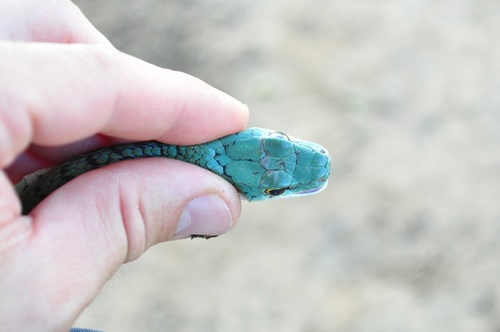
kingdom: Animalia
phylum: Chordata
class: Squamata
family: Colubridae
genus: Philothamnus
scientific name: Philothamnus semivariegatus
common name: Spotted bush snake
